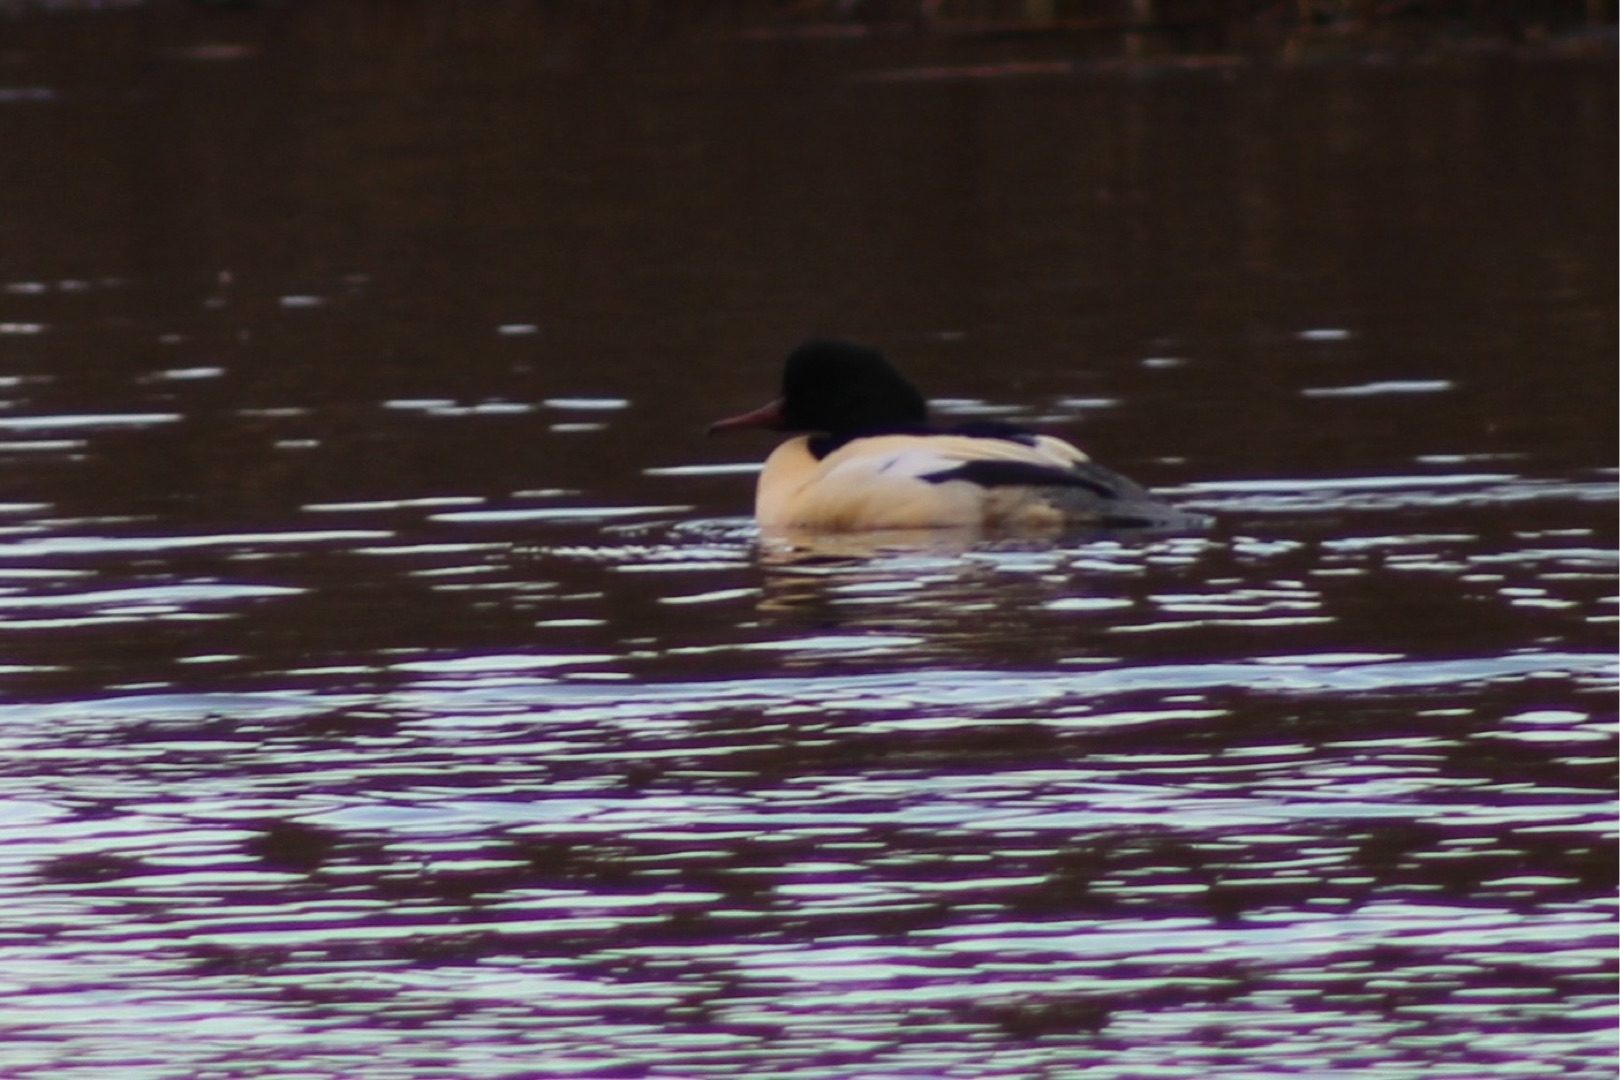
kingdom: Animalia
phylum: Chordata
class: Aves
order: Anseriformes
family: Anatidae
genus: Mergus
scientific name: Mergus merganser
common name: Stor skallesluger
